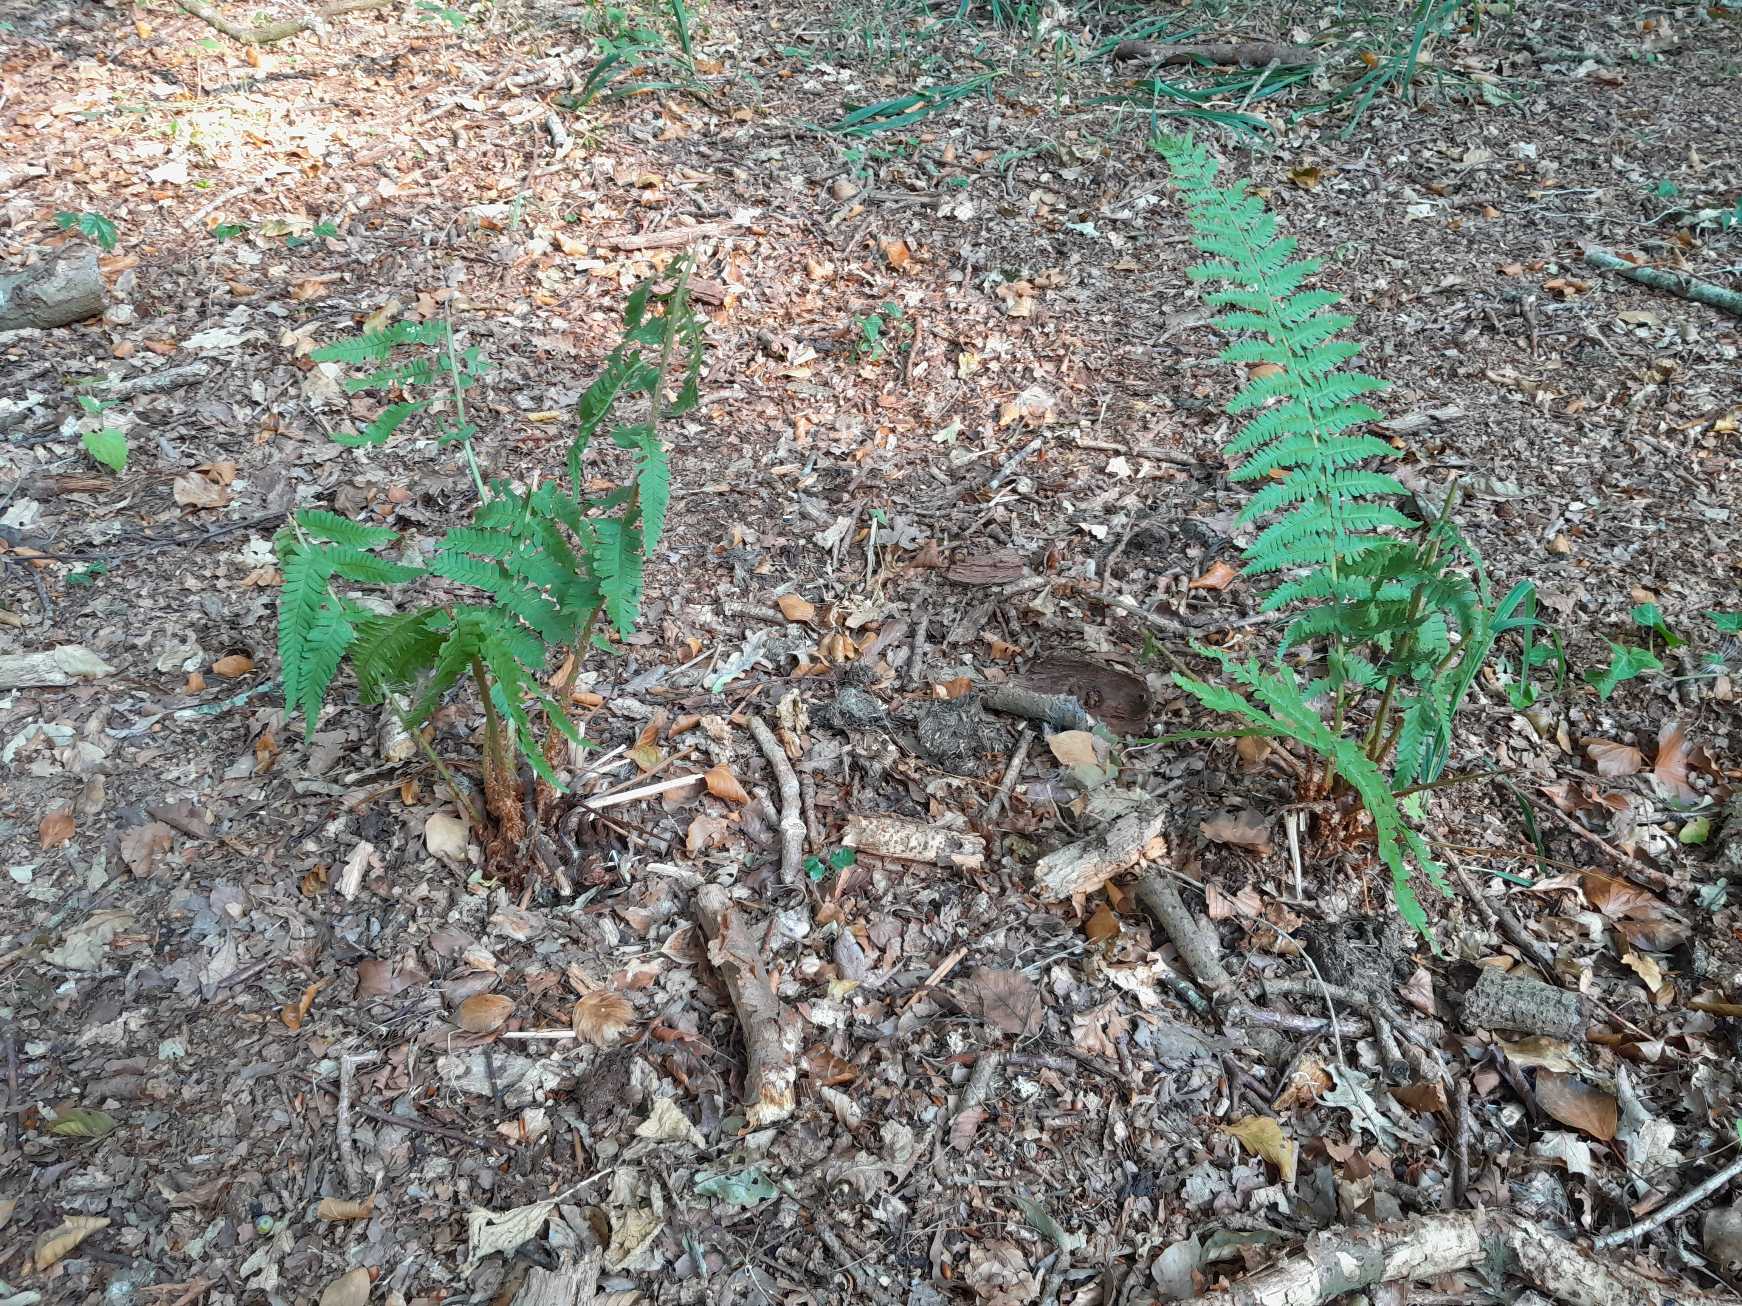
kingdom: Plantae
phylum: Tracheophyta
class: Polypodiopsida
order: Polypodiales
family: Dryopteridaceae
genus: Dryopteris
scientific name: Dryopteris filix-mas
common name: Almindelig mangeløv
